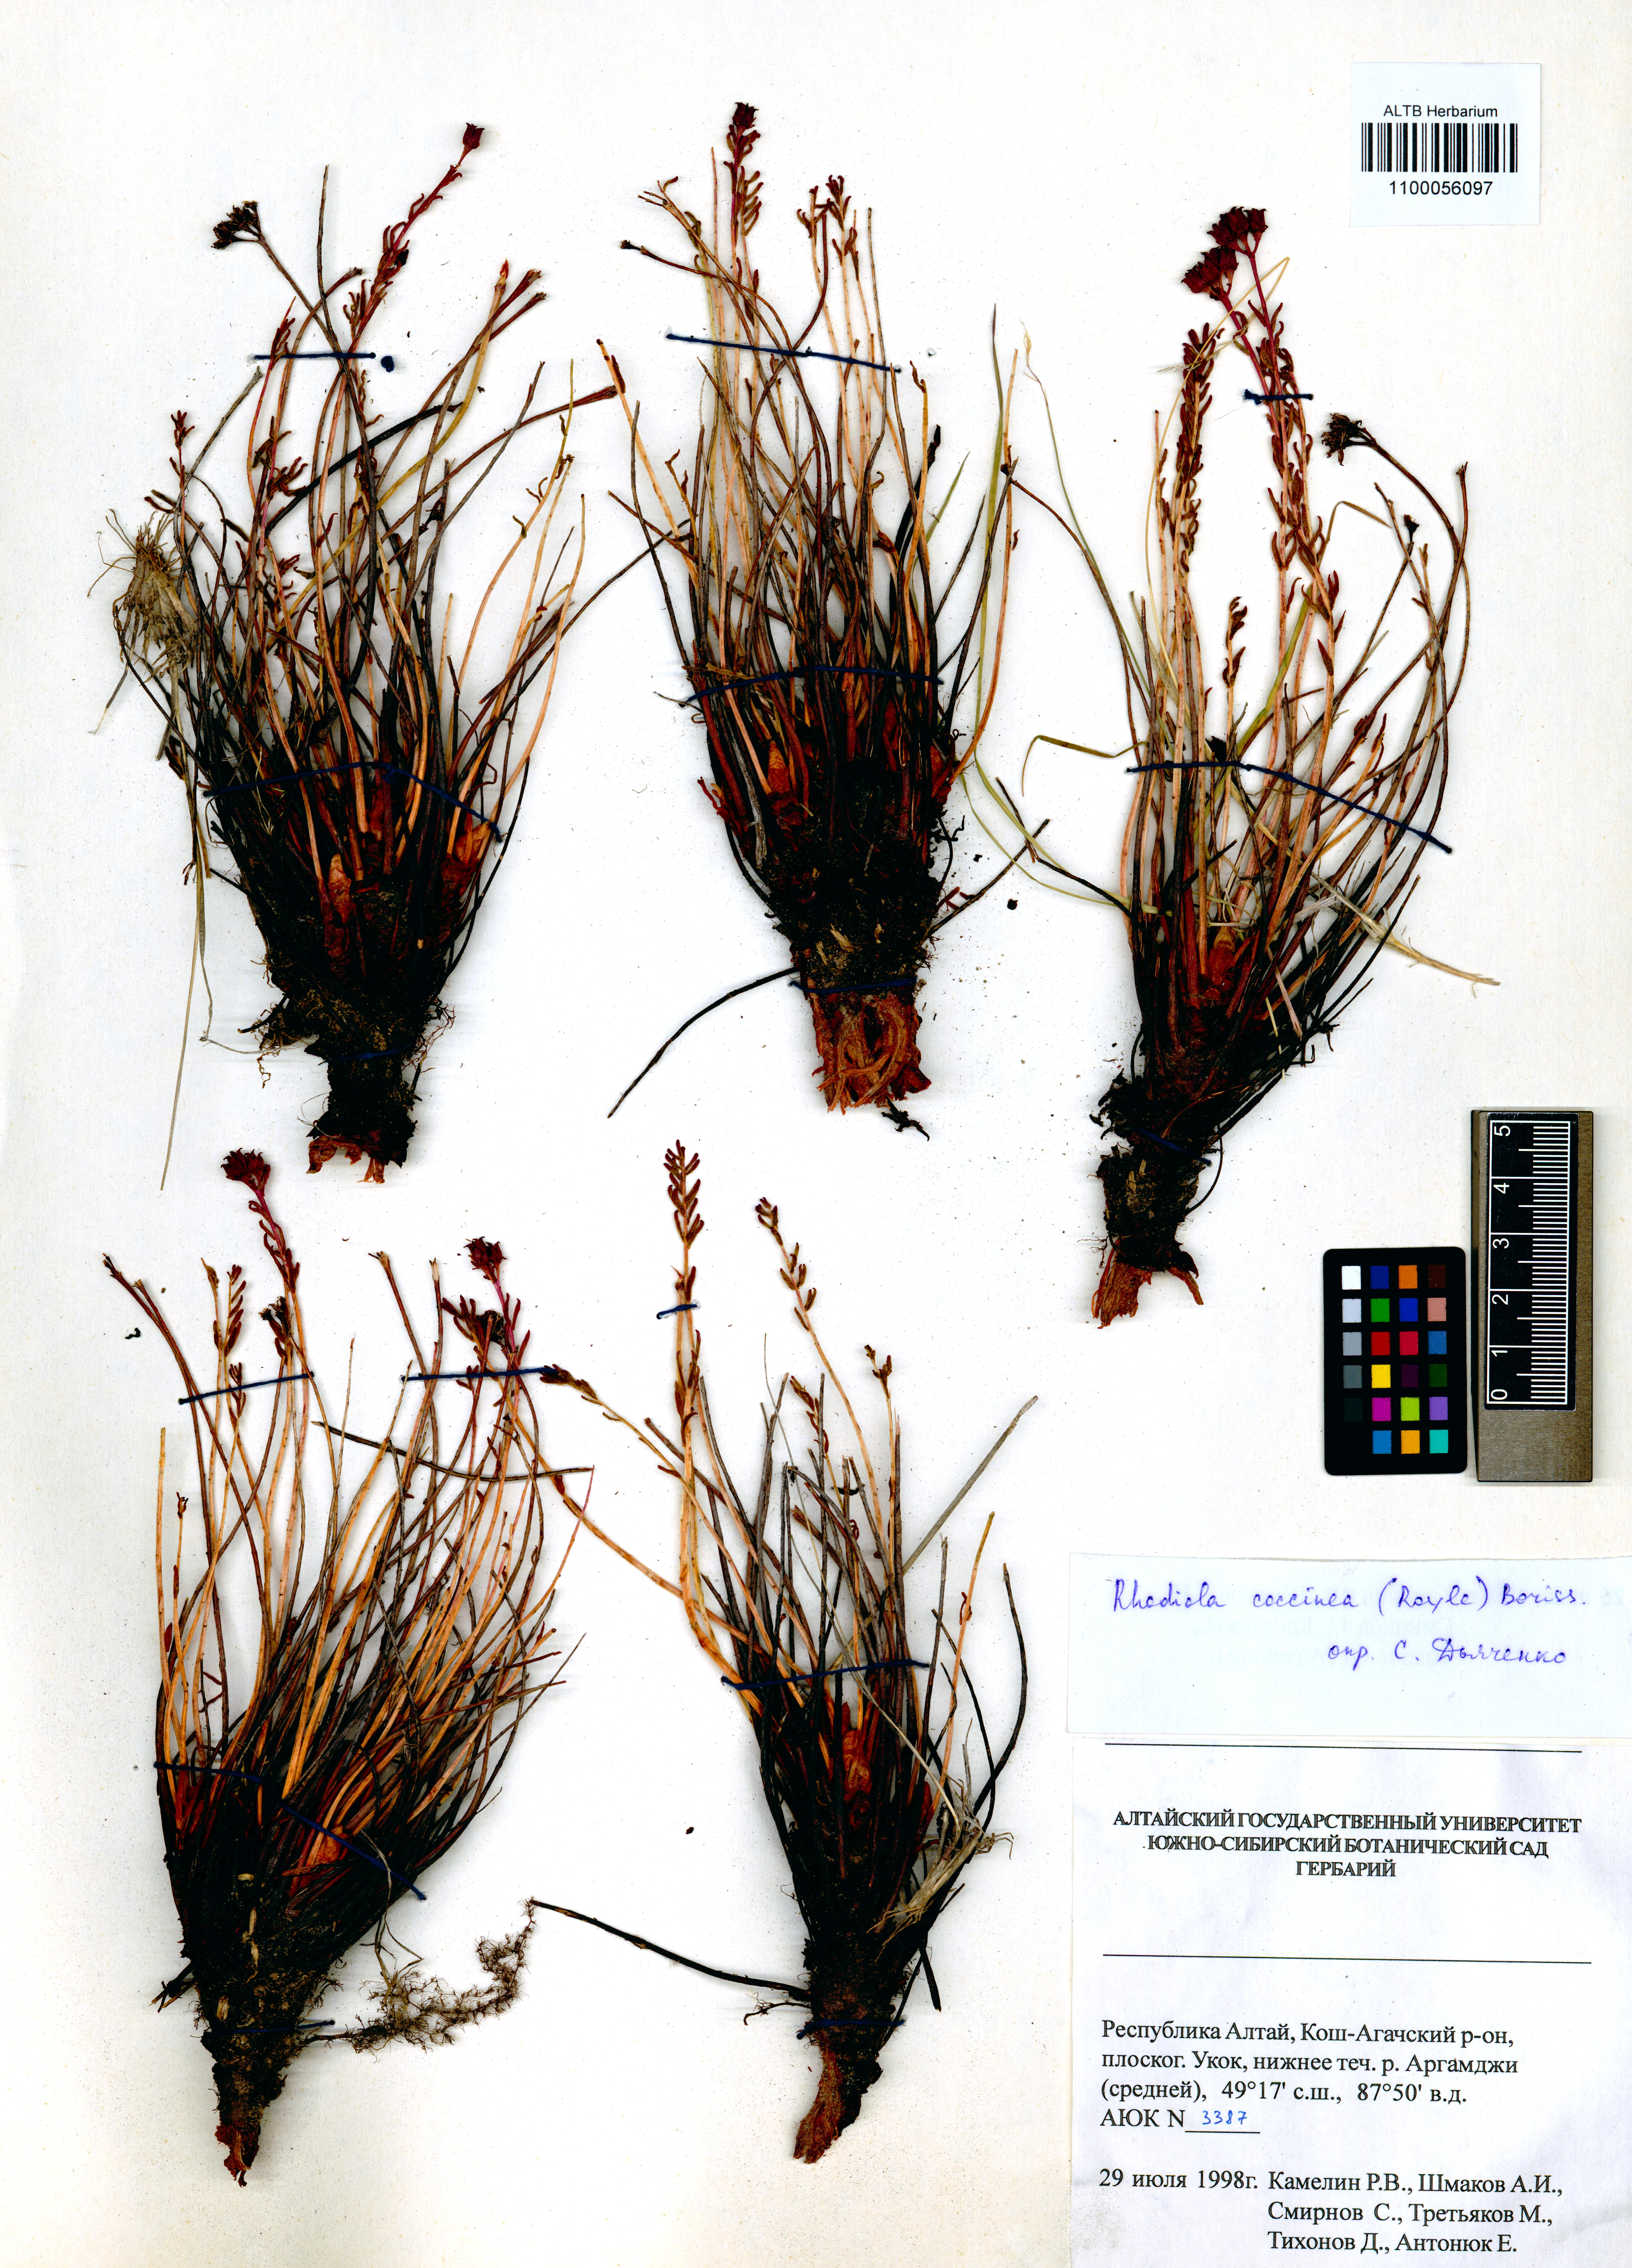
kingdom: Plantae
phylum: Tracheophyta
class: Magnoliopsida
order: Saxifragales
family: Crassulaceae
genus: Rhodiola
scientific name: Rhodiola coccinea
